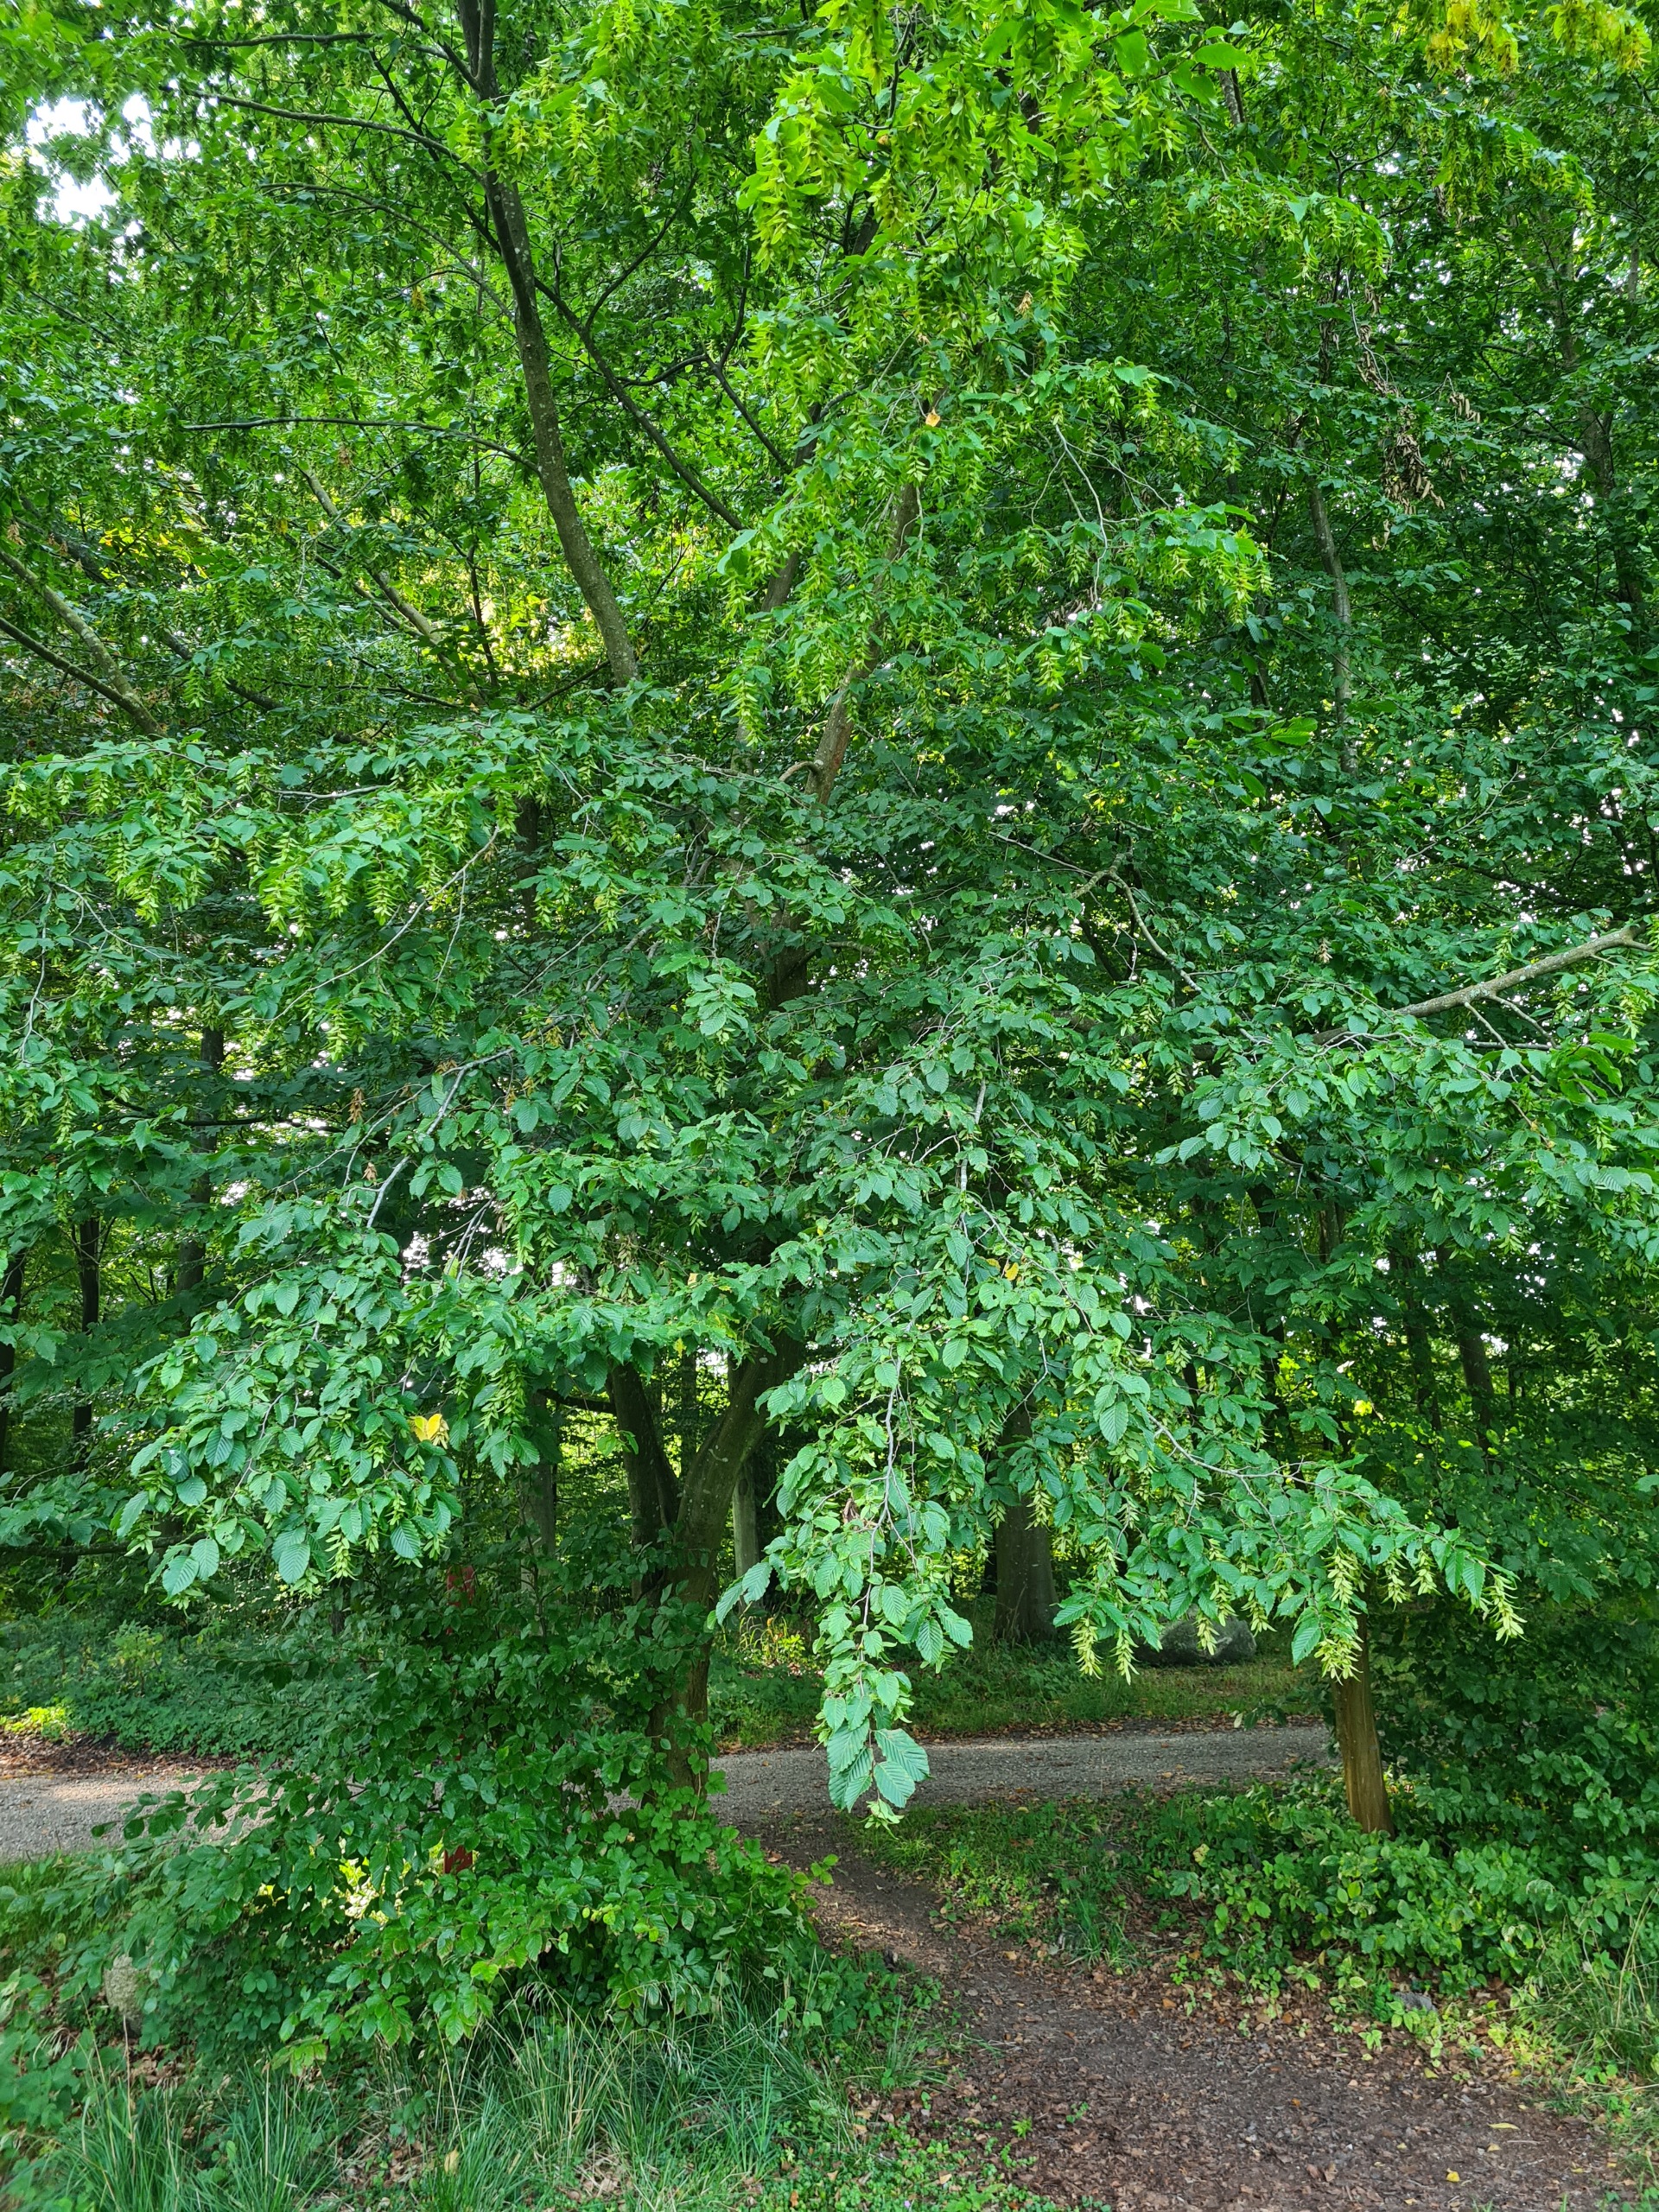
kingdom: Plantae
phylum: Tracheophyta
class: Magnoliopsida
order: Fagales
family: Betulaceae
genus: Carpinus
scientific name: Carpinus betulus
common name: Avnbøg
